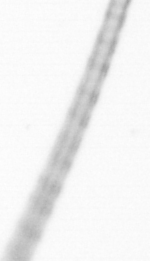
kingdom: Chromista
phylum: Ochrophyta
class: Bacillariophyceae
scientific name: Bacillariophyceae
